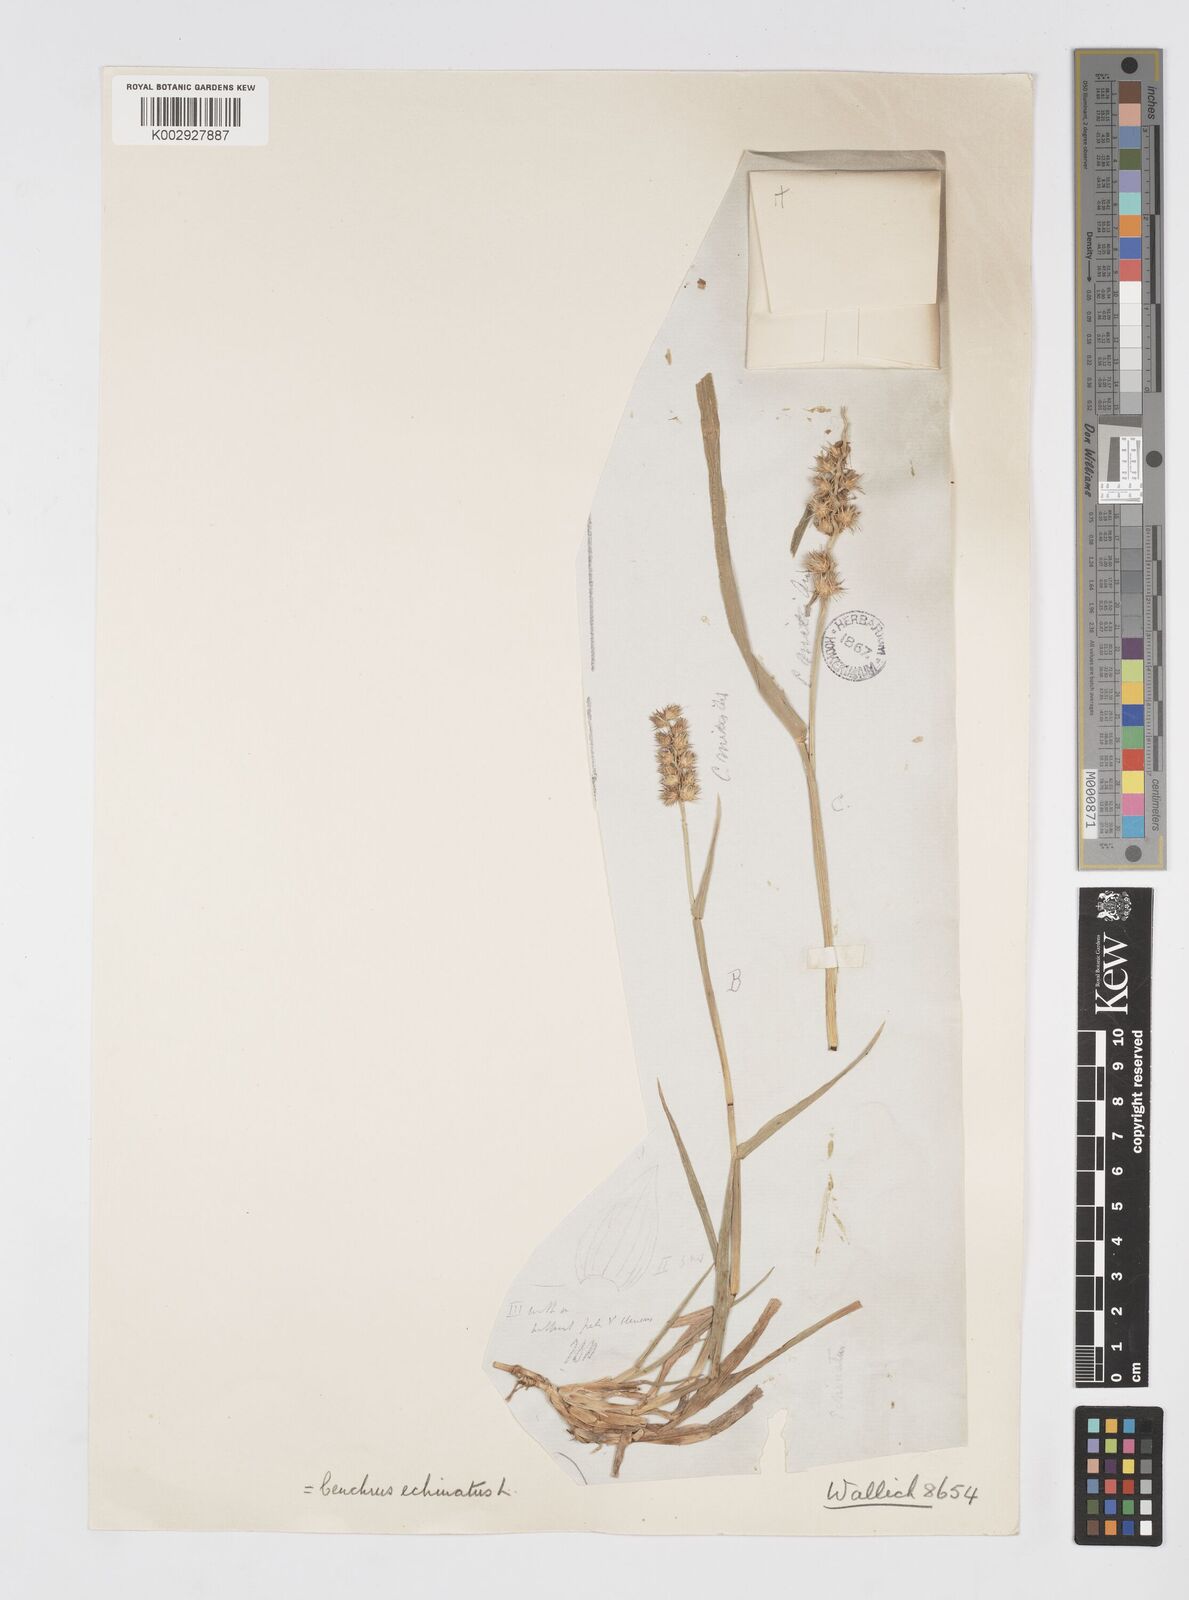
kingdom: Plantae
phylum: Tracheophyta
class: Liliopsida
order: Poales
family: Poaceae
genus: Cenchrus
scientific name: Cenchrus echinatus
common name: Southern sandbur
